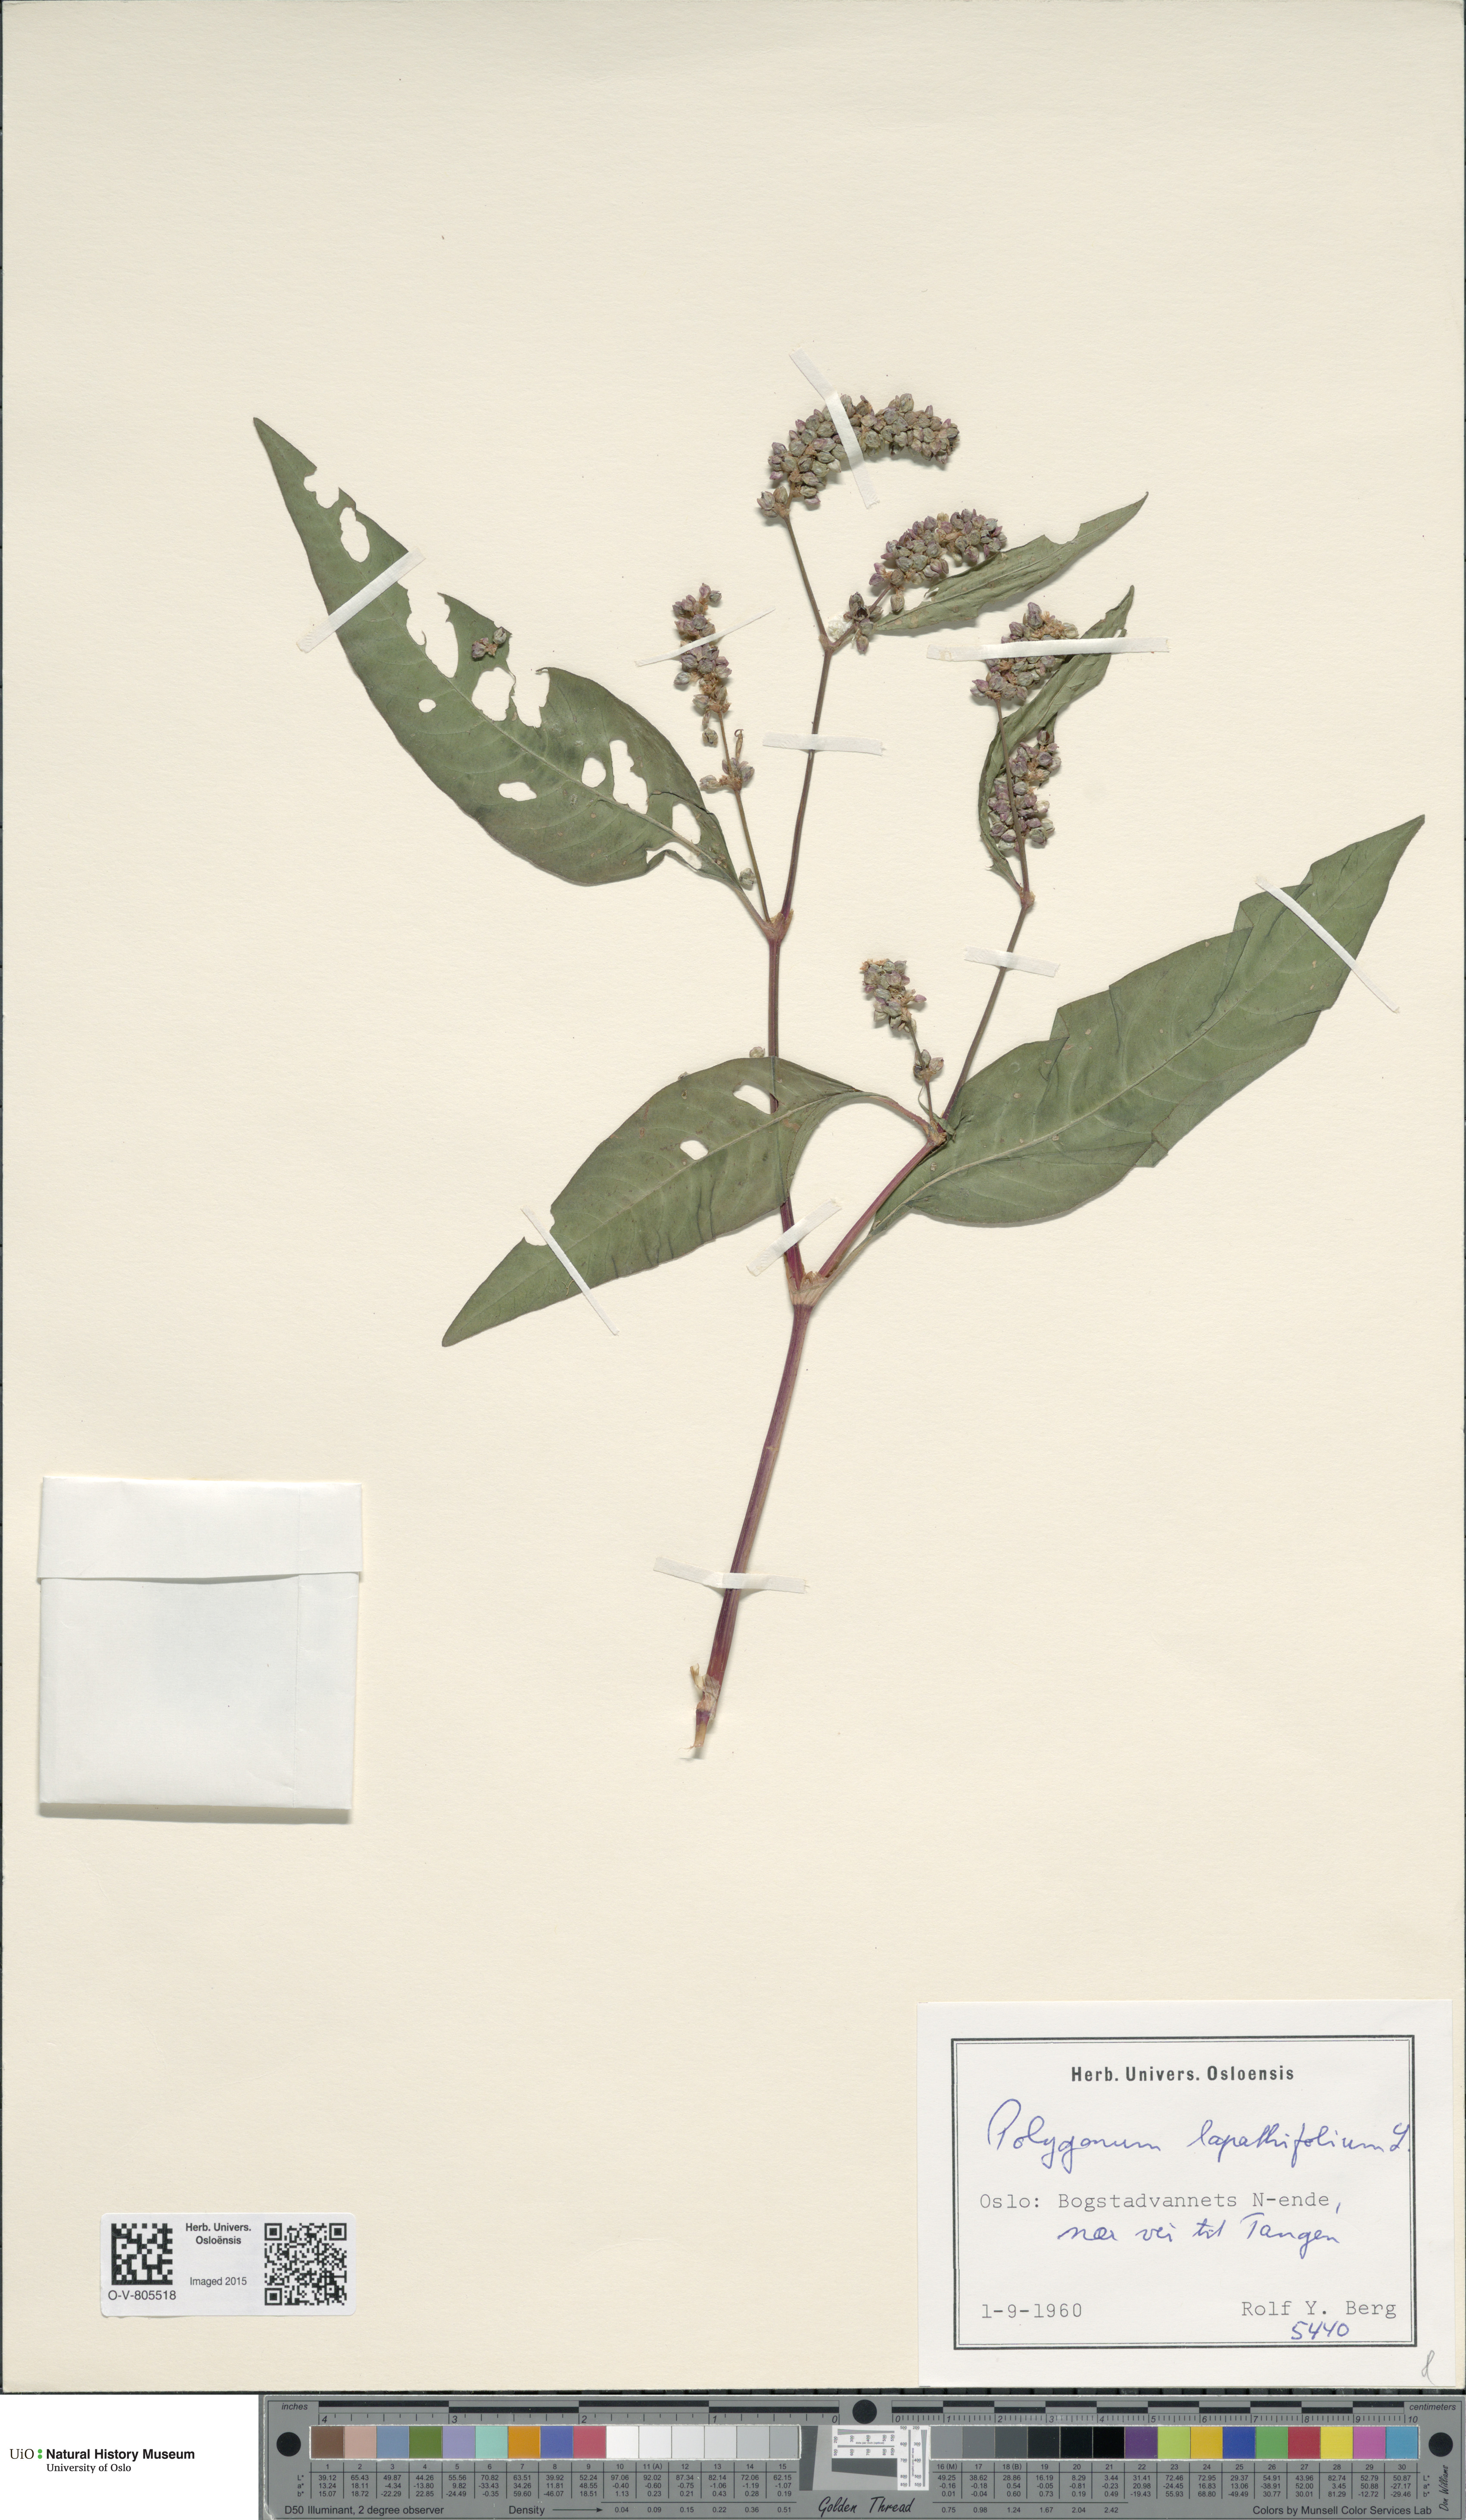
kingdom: Plantae
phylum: Tracheophyta
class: Magnoliopsida
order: Caryophyllales
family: Polygonaceae
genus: Persicaria
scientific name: Persicaria lapathifolia
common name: Curlytop knotweed
